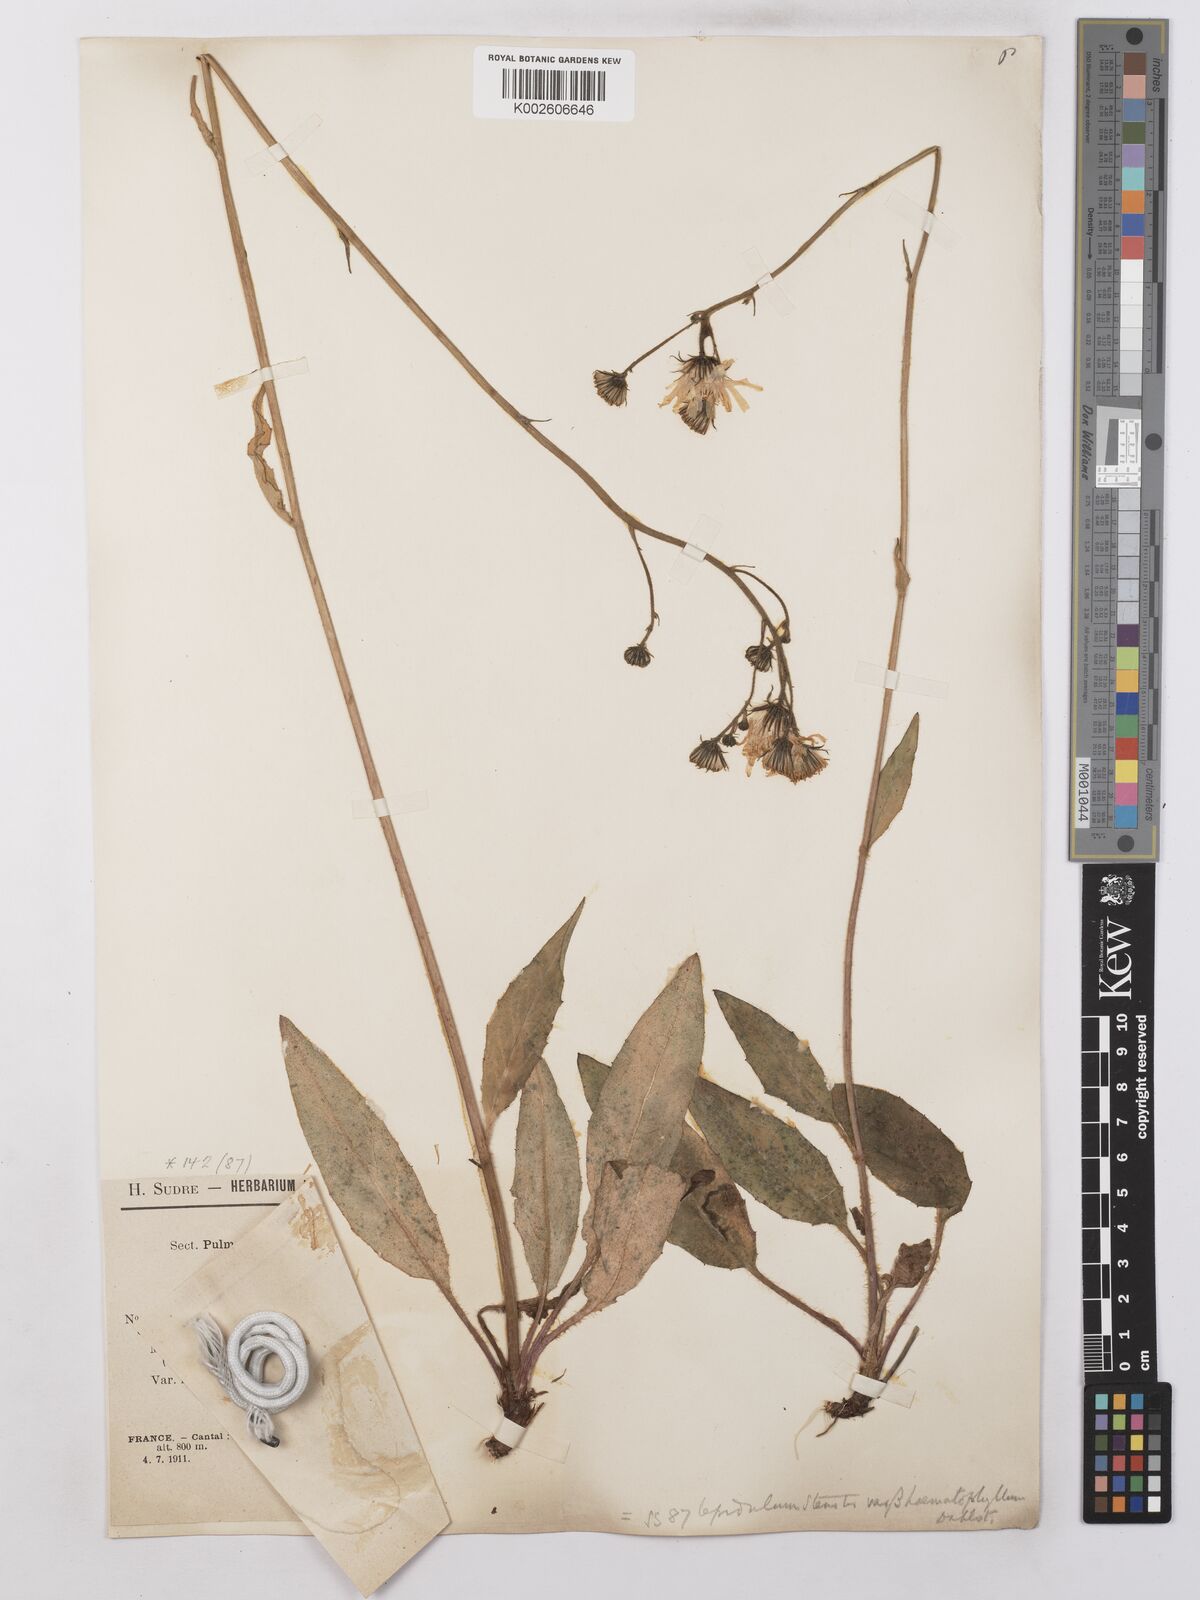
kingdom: Plantae
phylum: Tracheophyta
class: Magnoliopsida
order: Asterales
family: Asteraceae
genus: Hieracium
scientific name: Hieracium lachenalii
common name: Common hawkweed
